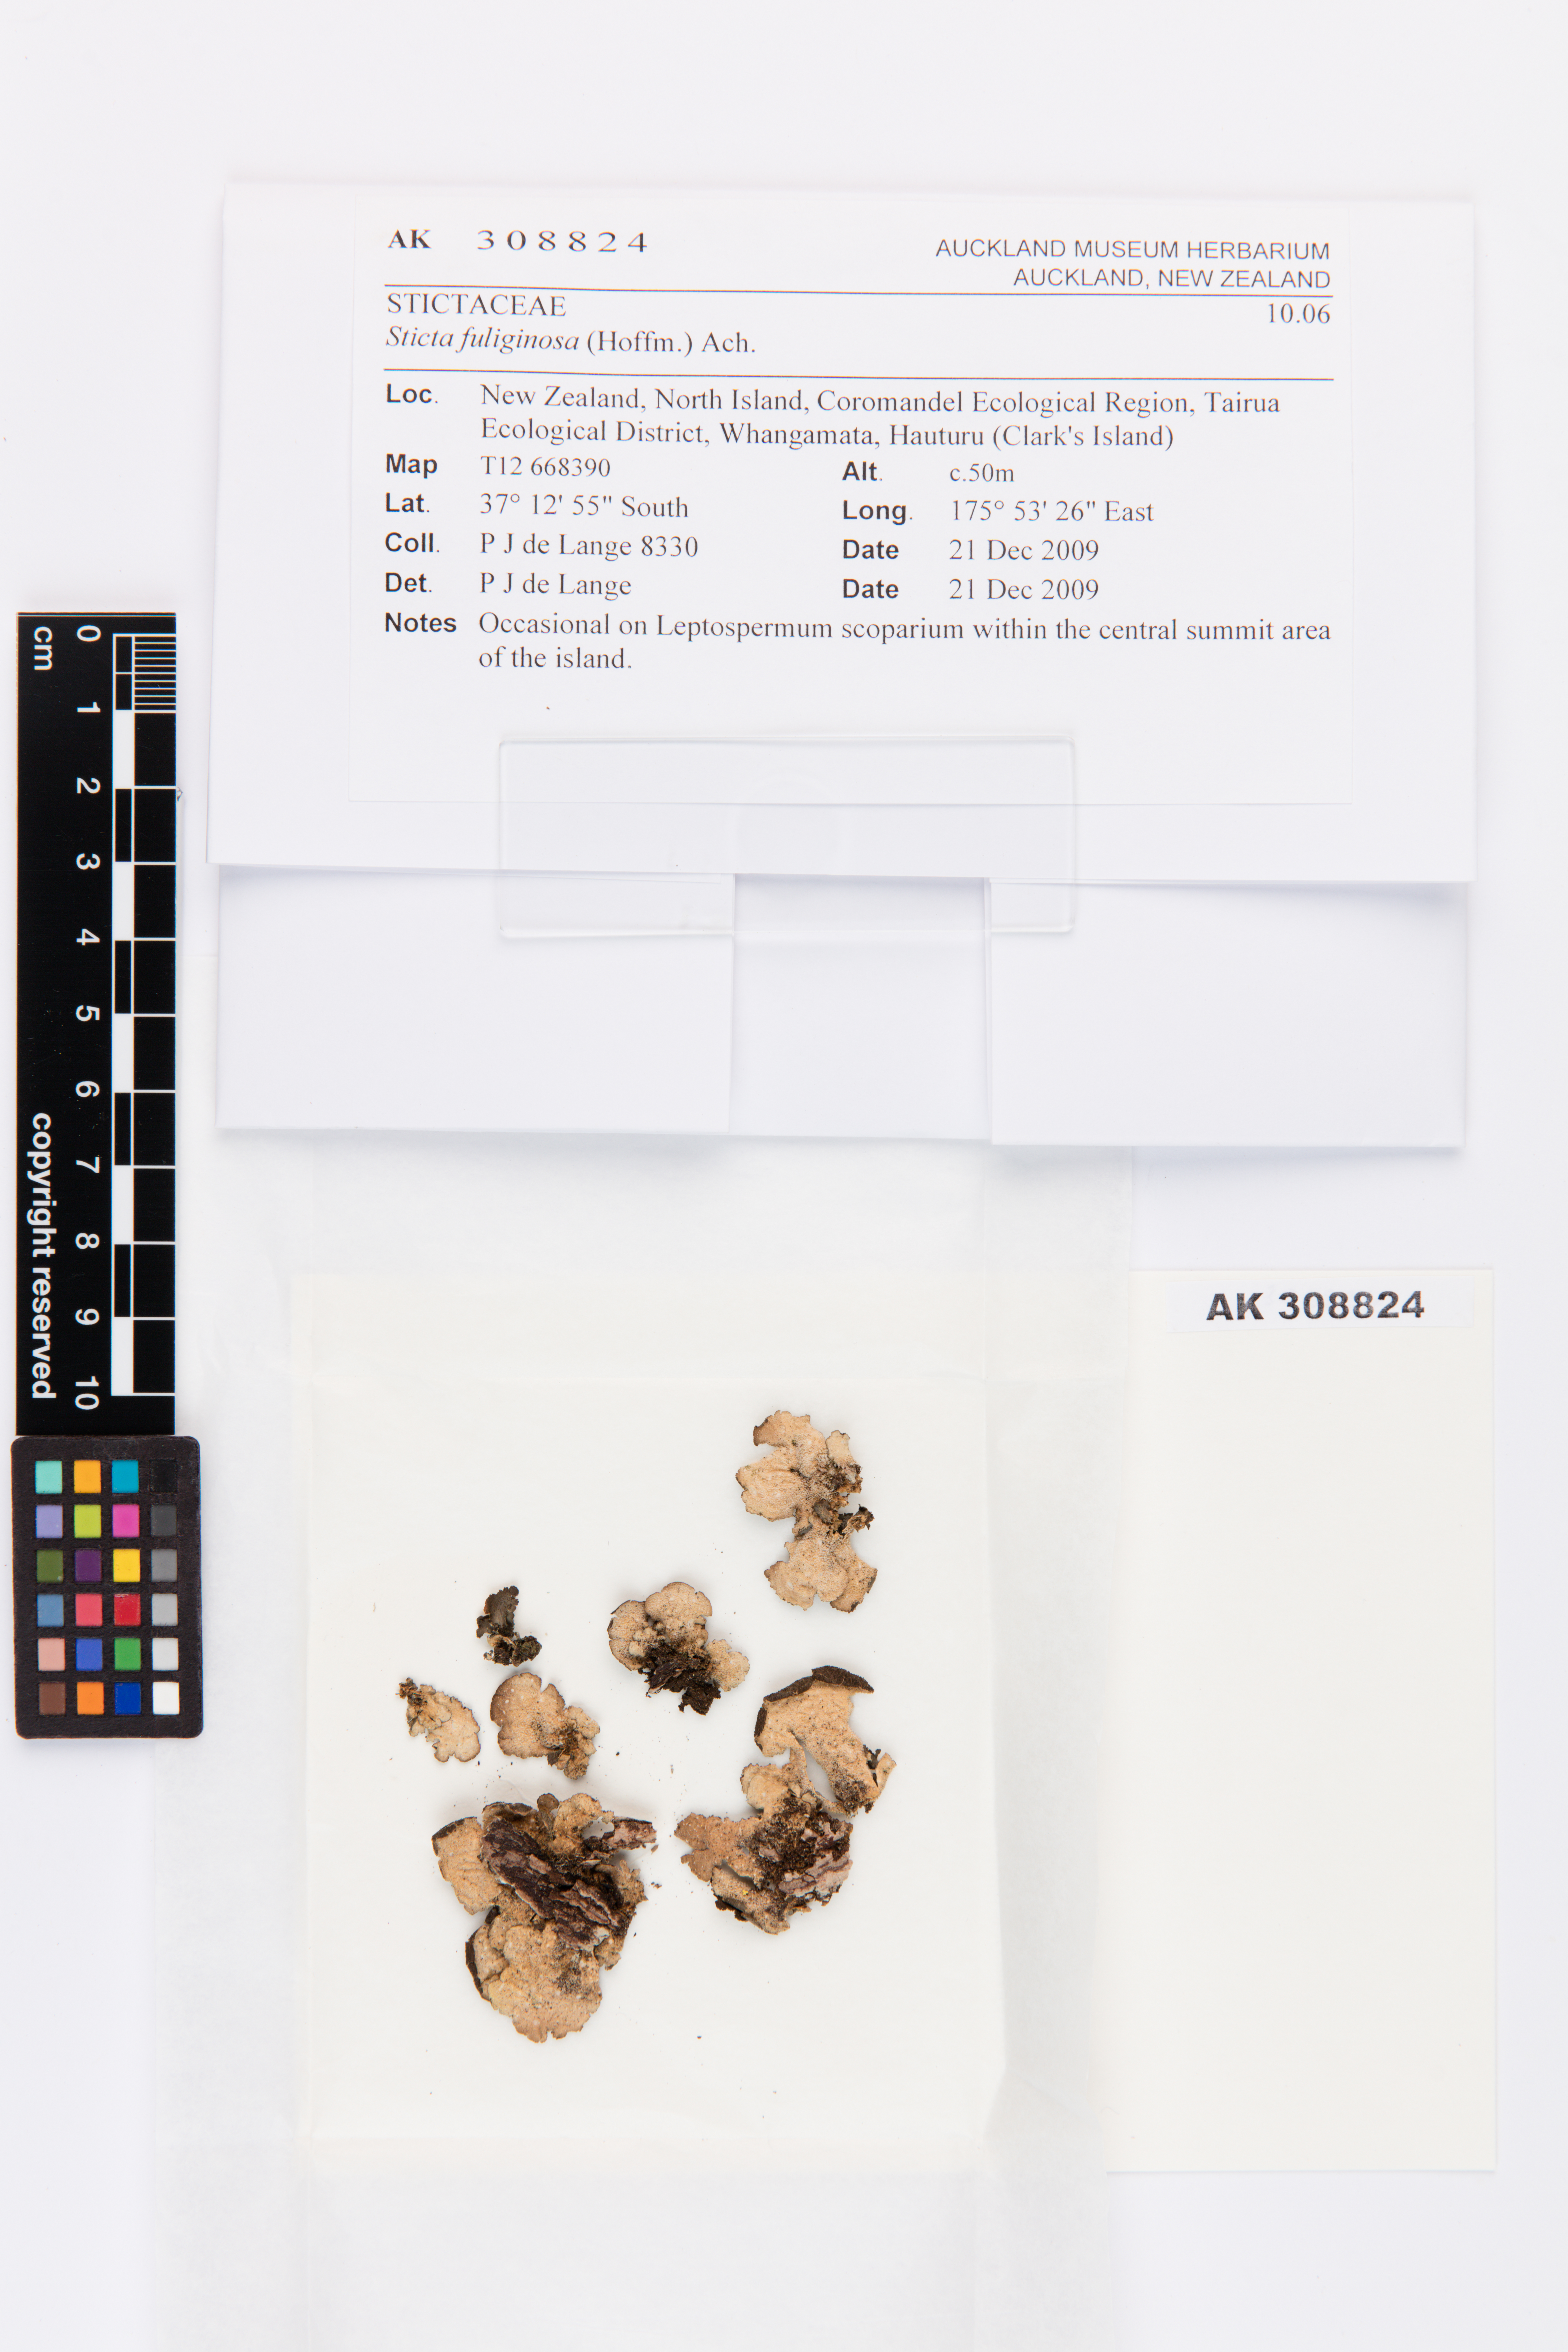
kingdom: Fungi
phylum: Ascomycota
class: Lecanoromycetes
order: Peltigerales
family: Lobariaceae
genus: Sticta
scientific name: Sticta fuliginosa
